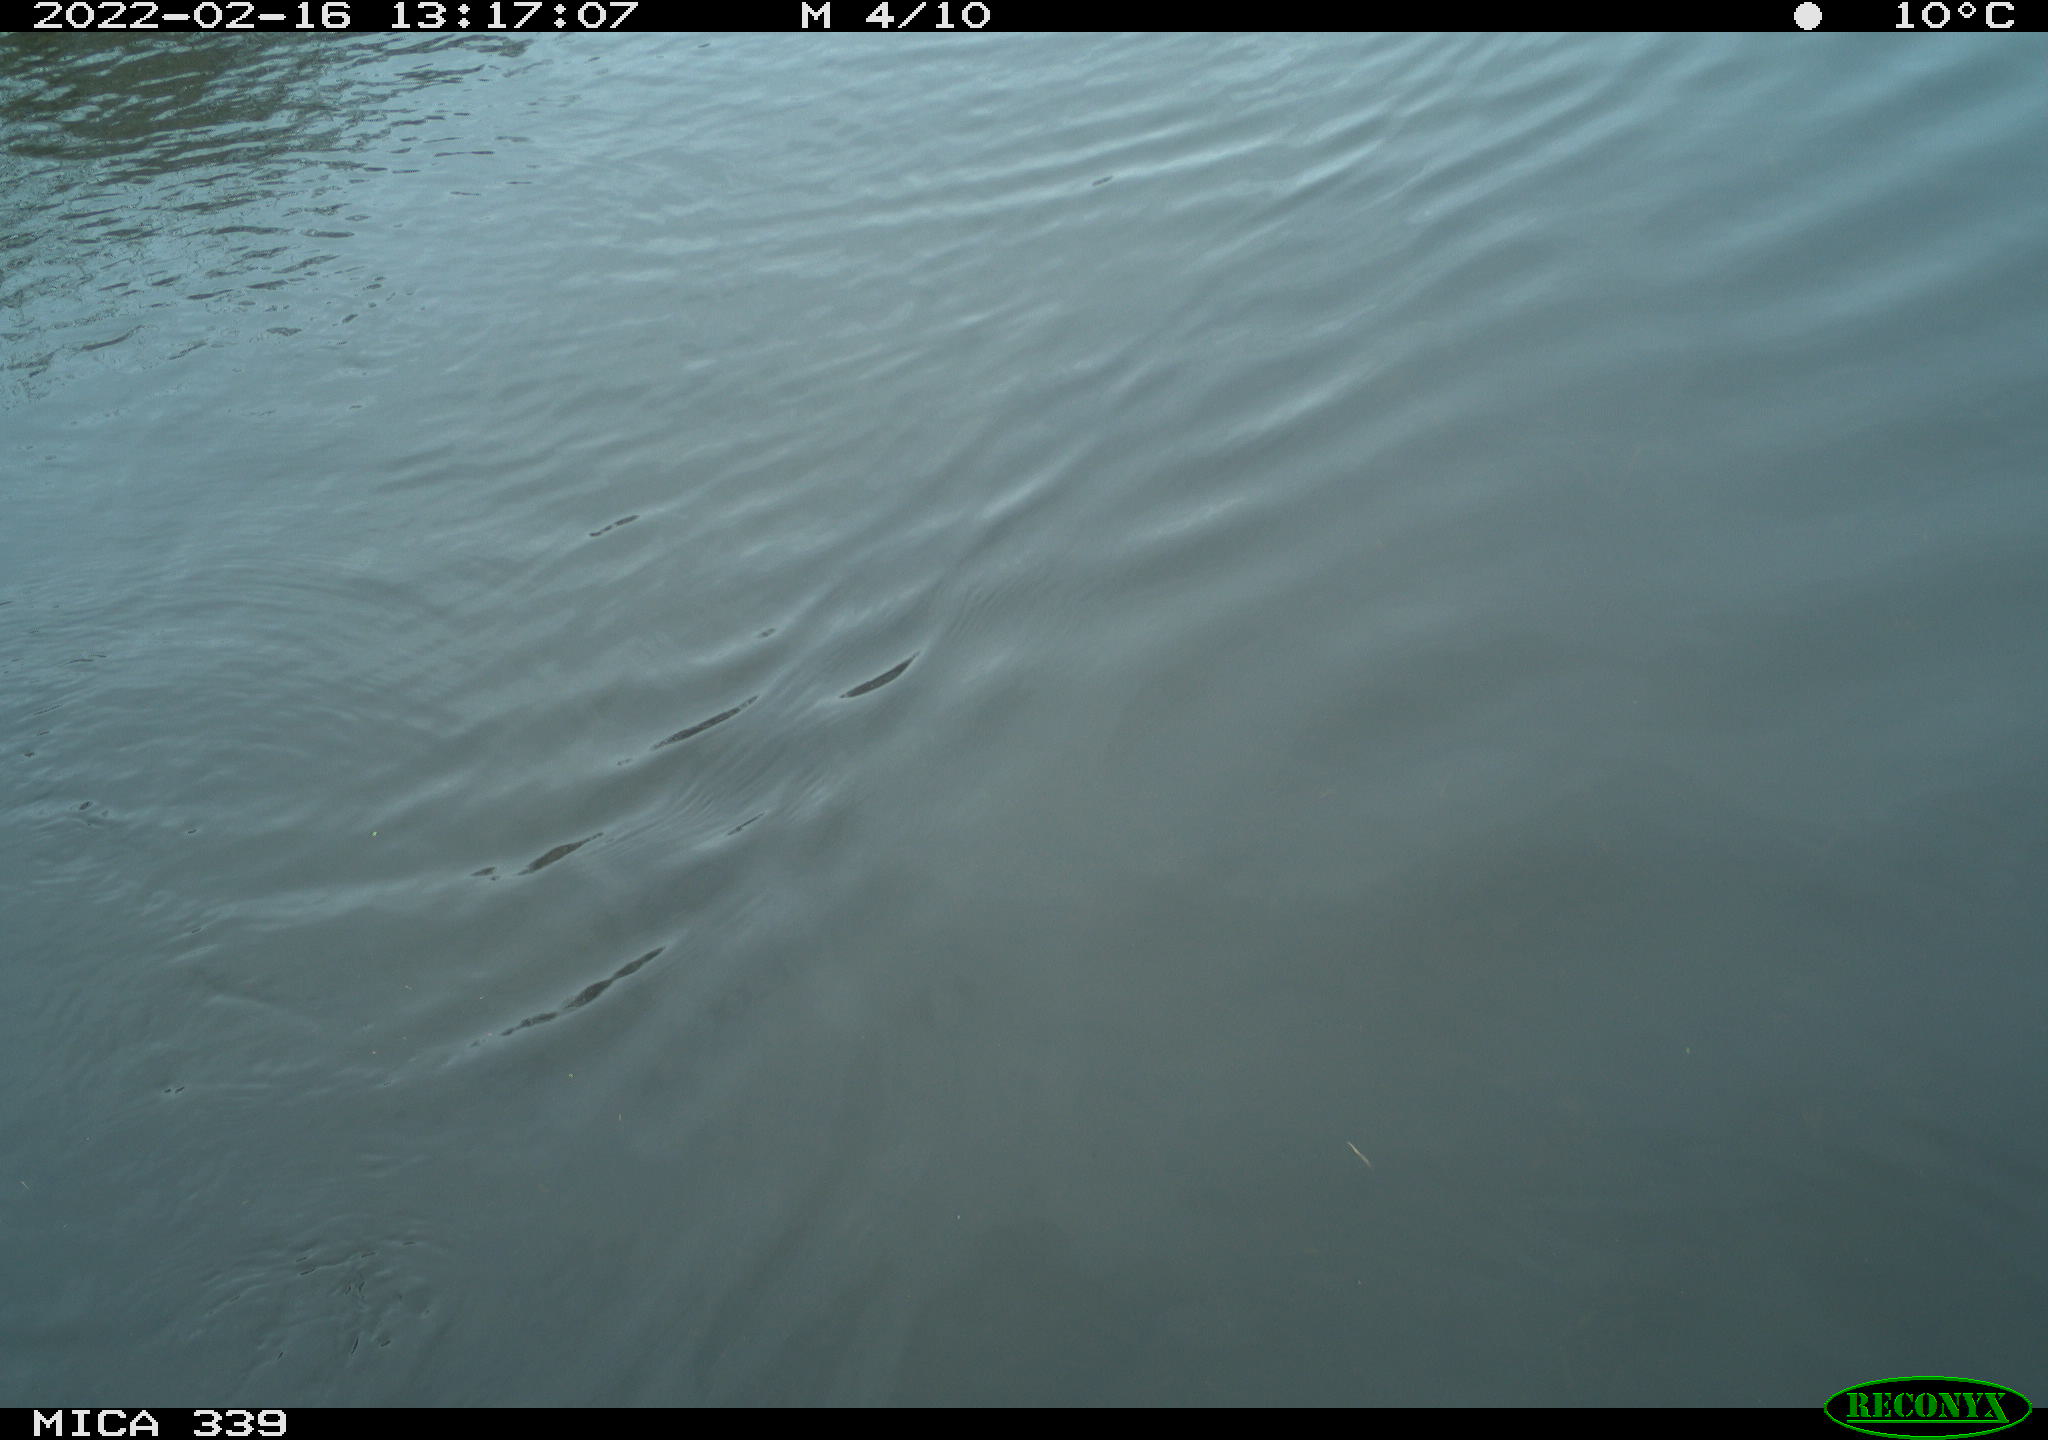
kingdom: Animalia
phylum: Chordata
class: Aves
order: Suliformes
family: Phalacrocoracidae
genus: Phalacrocorax
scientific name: Phalacrocorax carbo
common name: Great cormorant
